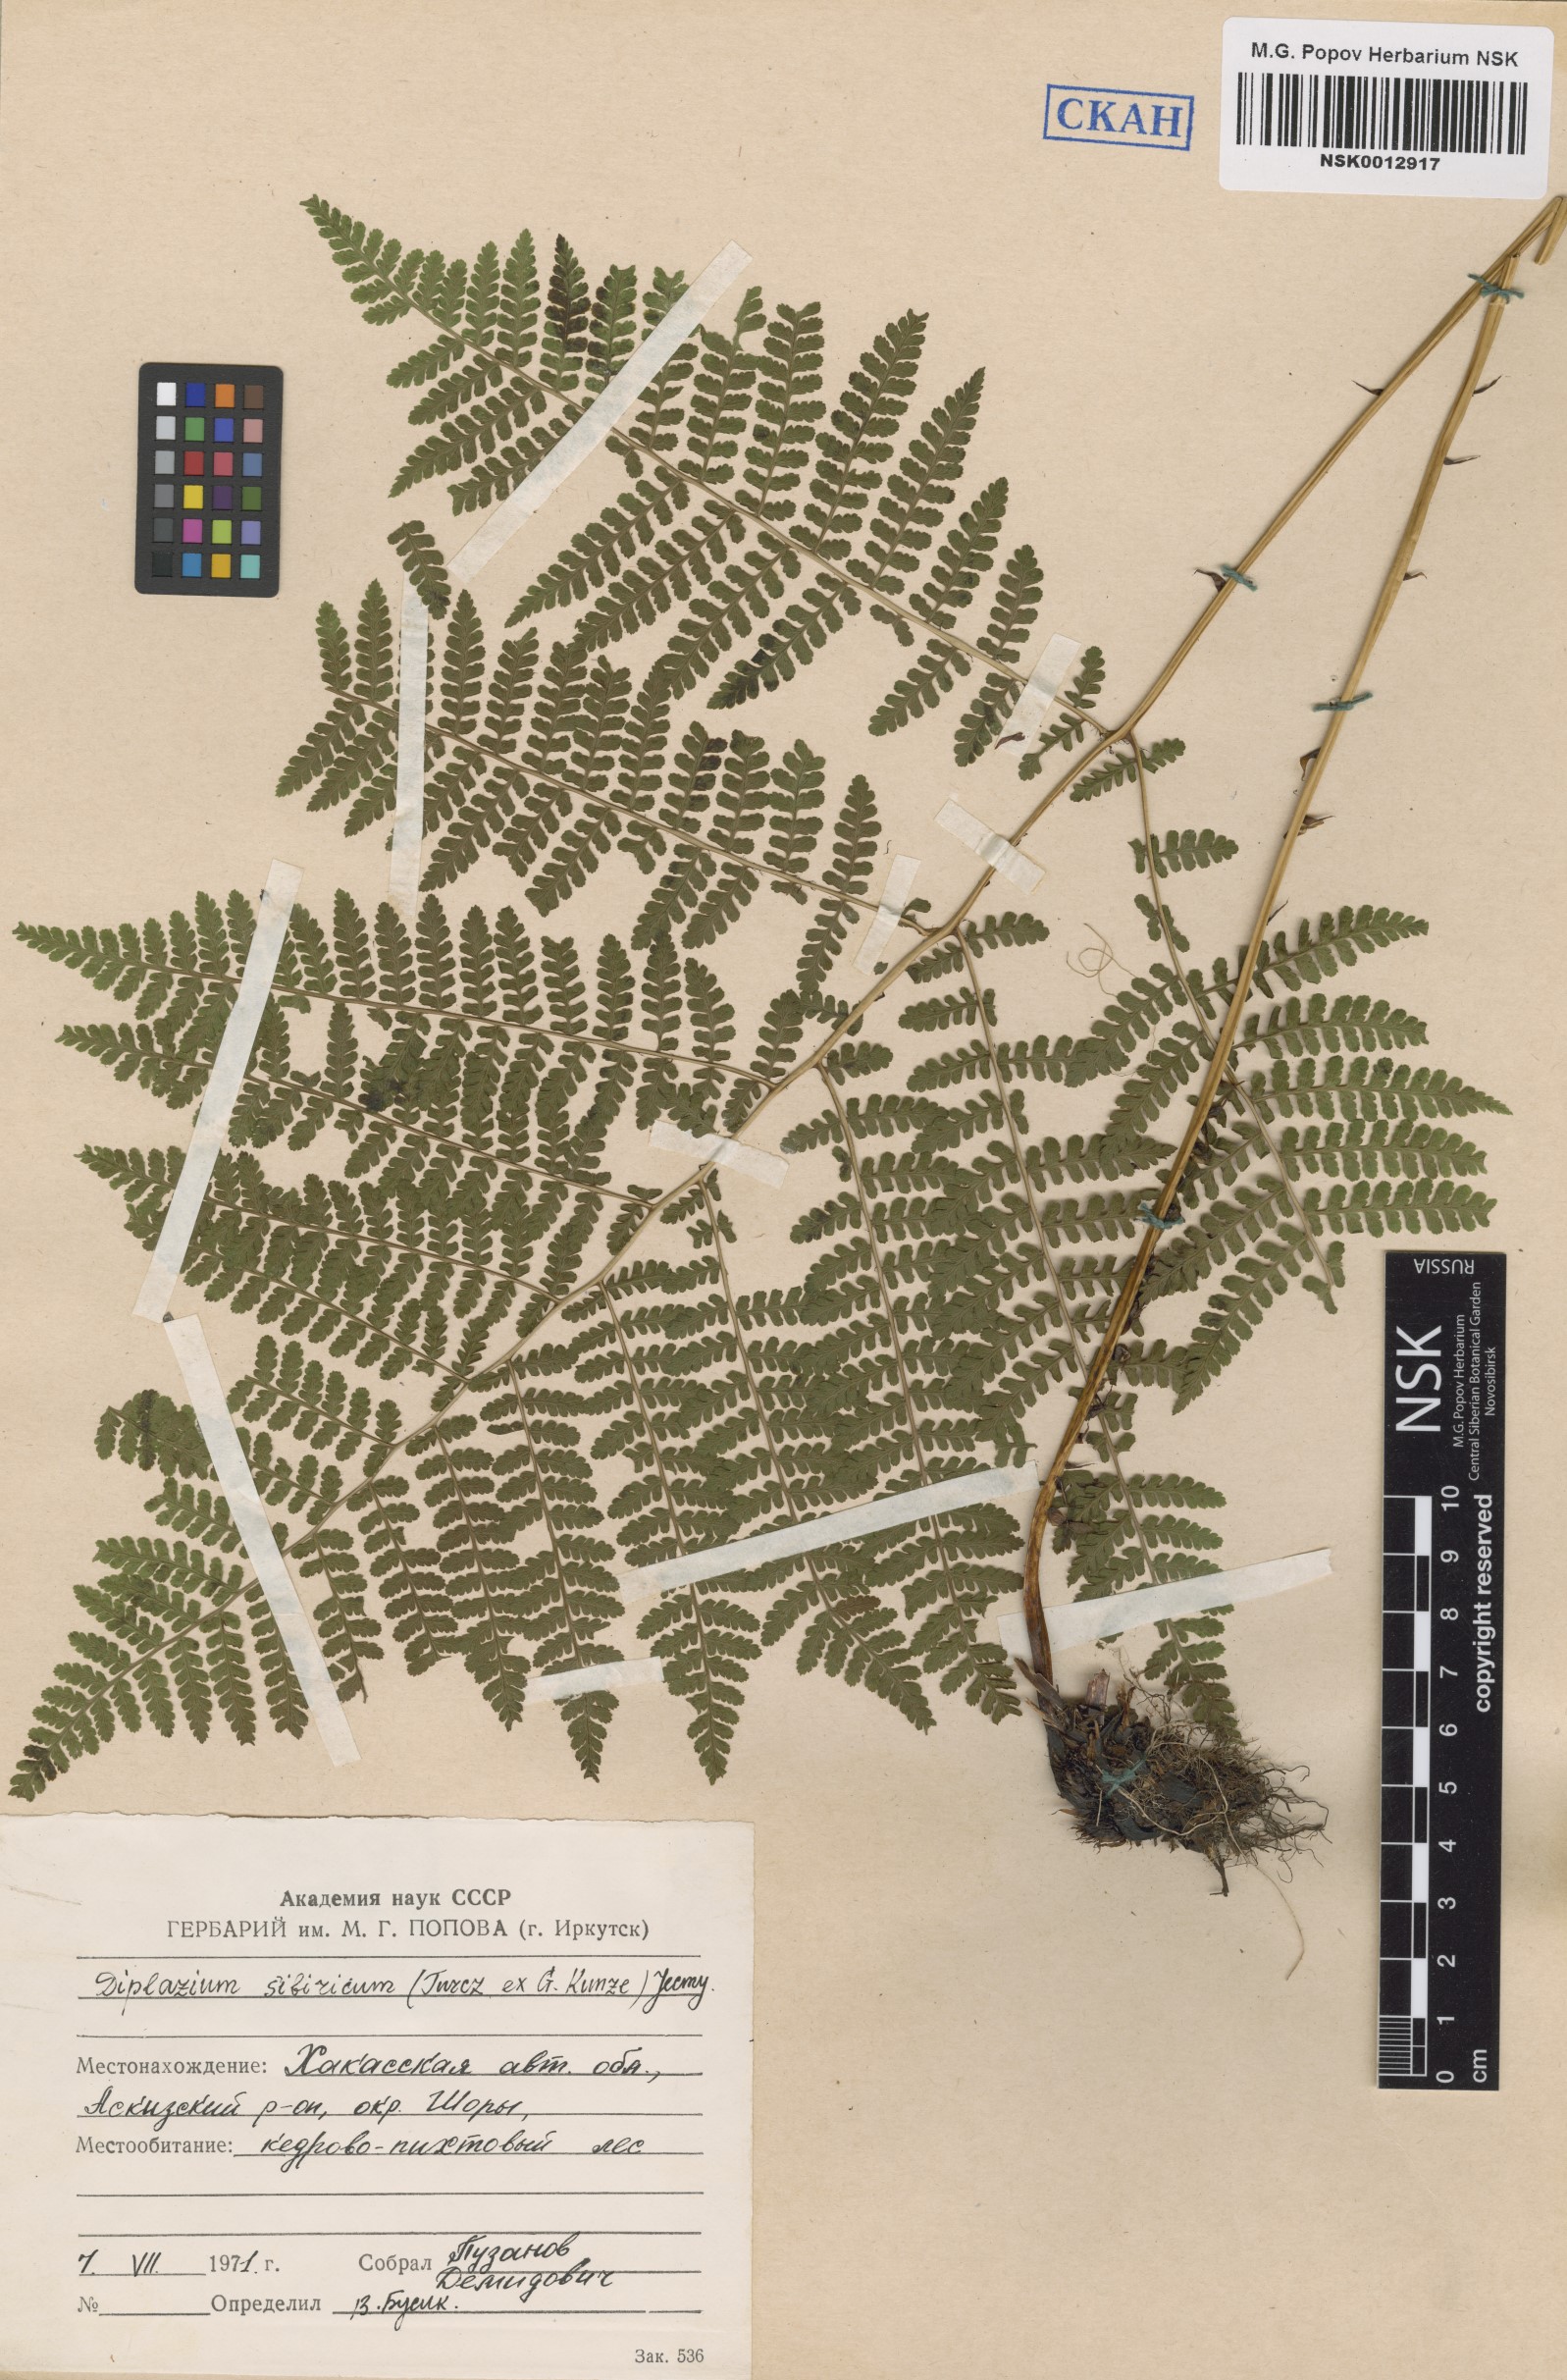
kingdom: Plantae
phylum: Tracheophyta
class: Polypodiopsida
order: Polypodiales
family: Athyriaceae
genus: Diplazium
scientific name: Diplazium sibiricum
